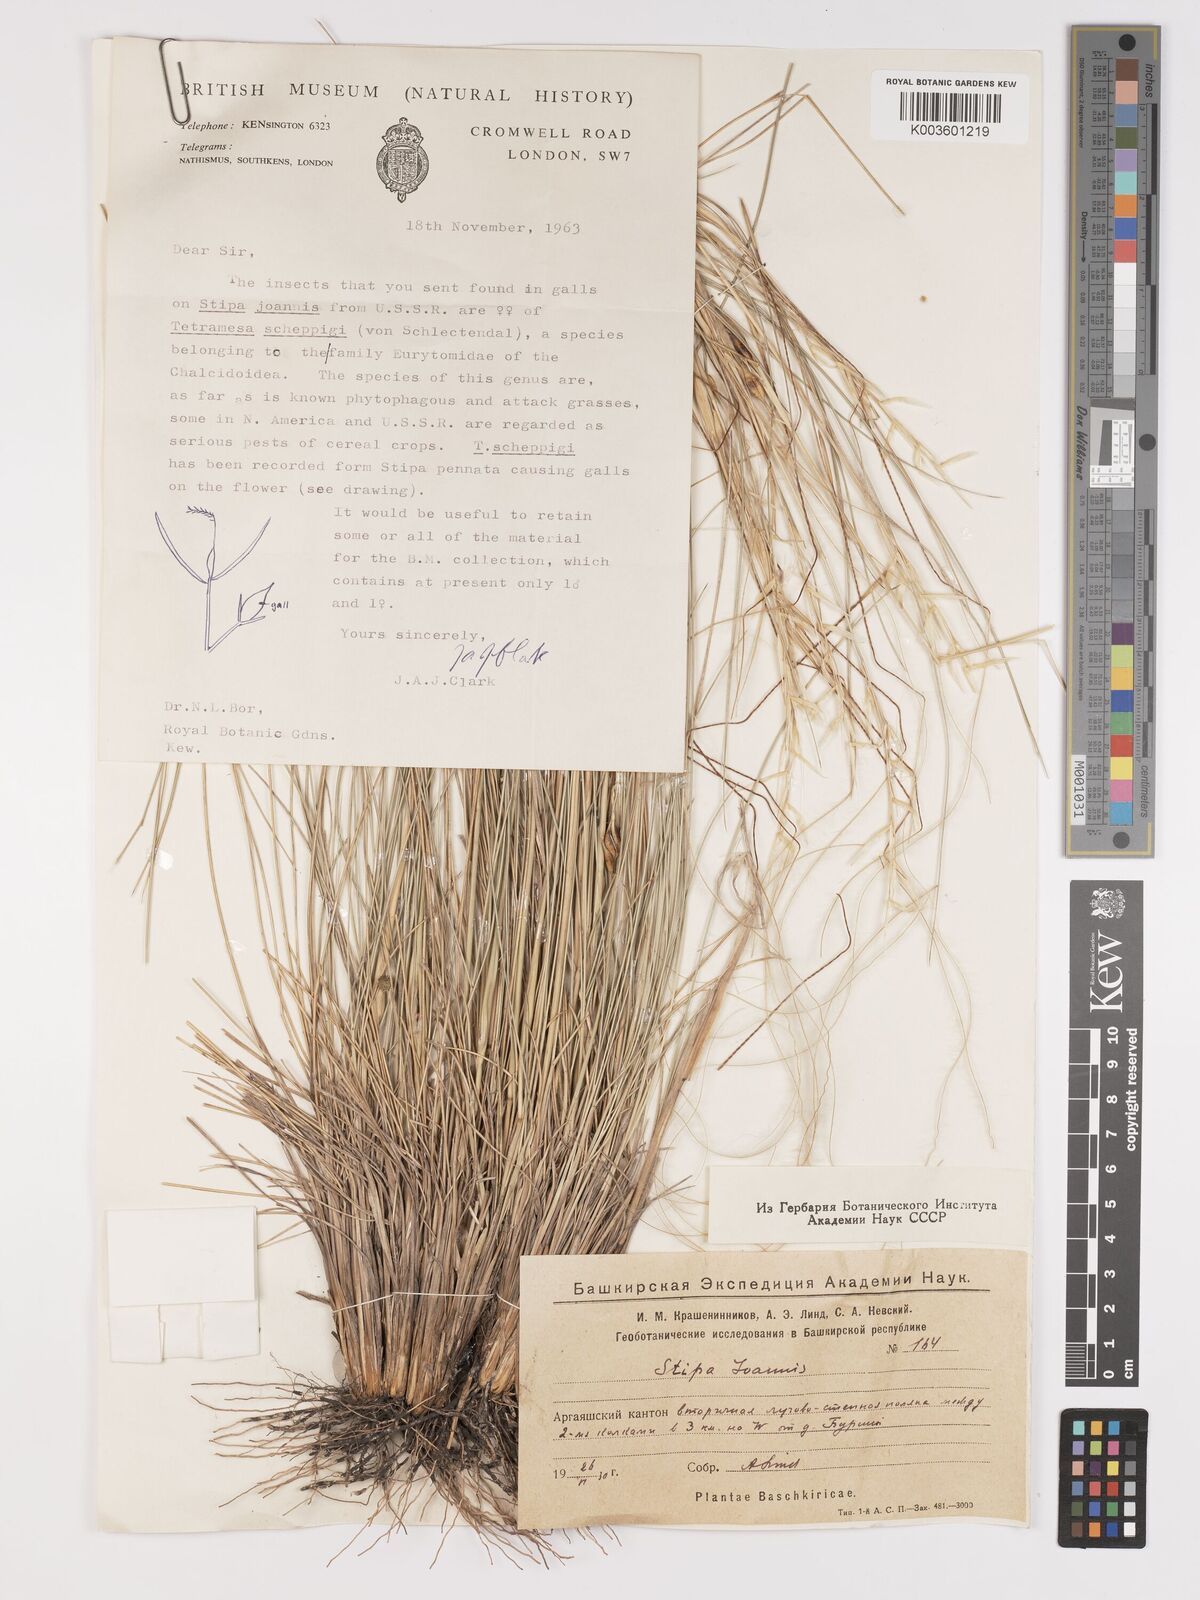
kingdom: Plantae
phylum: Tracheophyta
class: Liliopsida
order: Poales
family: Poaceae
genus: Stipa
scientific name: Stipa pennata
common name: European feather grass
